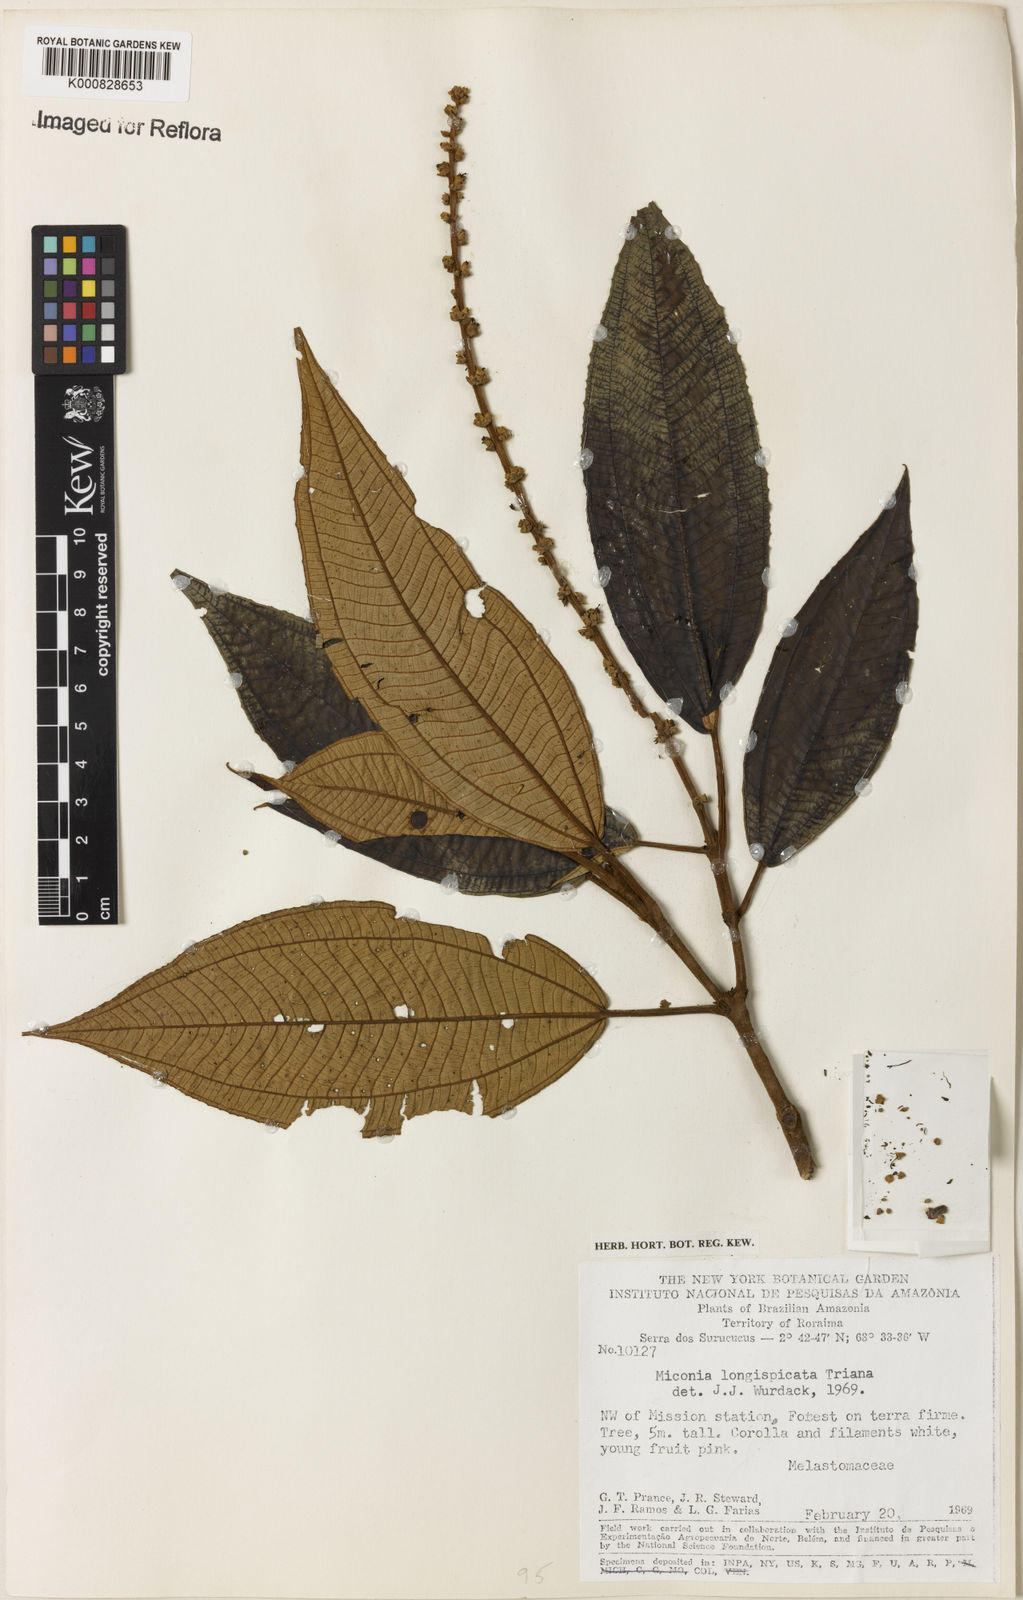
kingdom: Plantae
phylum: Tracheophyta
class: Magnoliopsida
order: Myrtales
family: Melastomataceae
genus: Miconia
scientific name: Miconia longispicata
